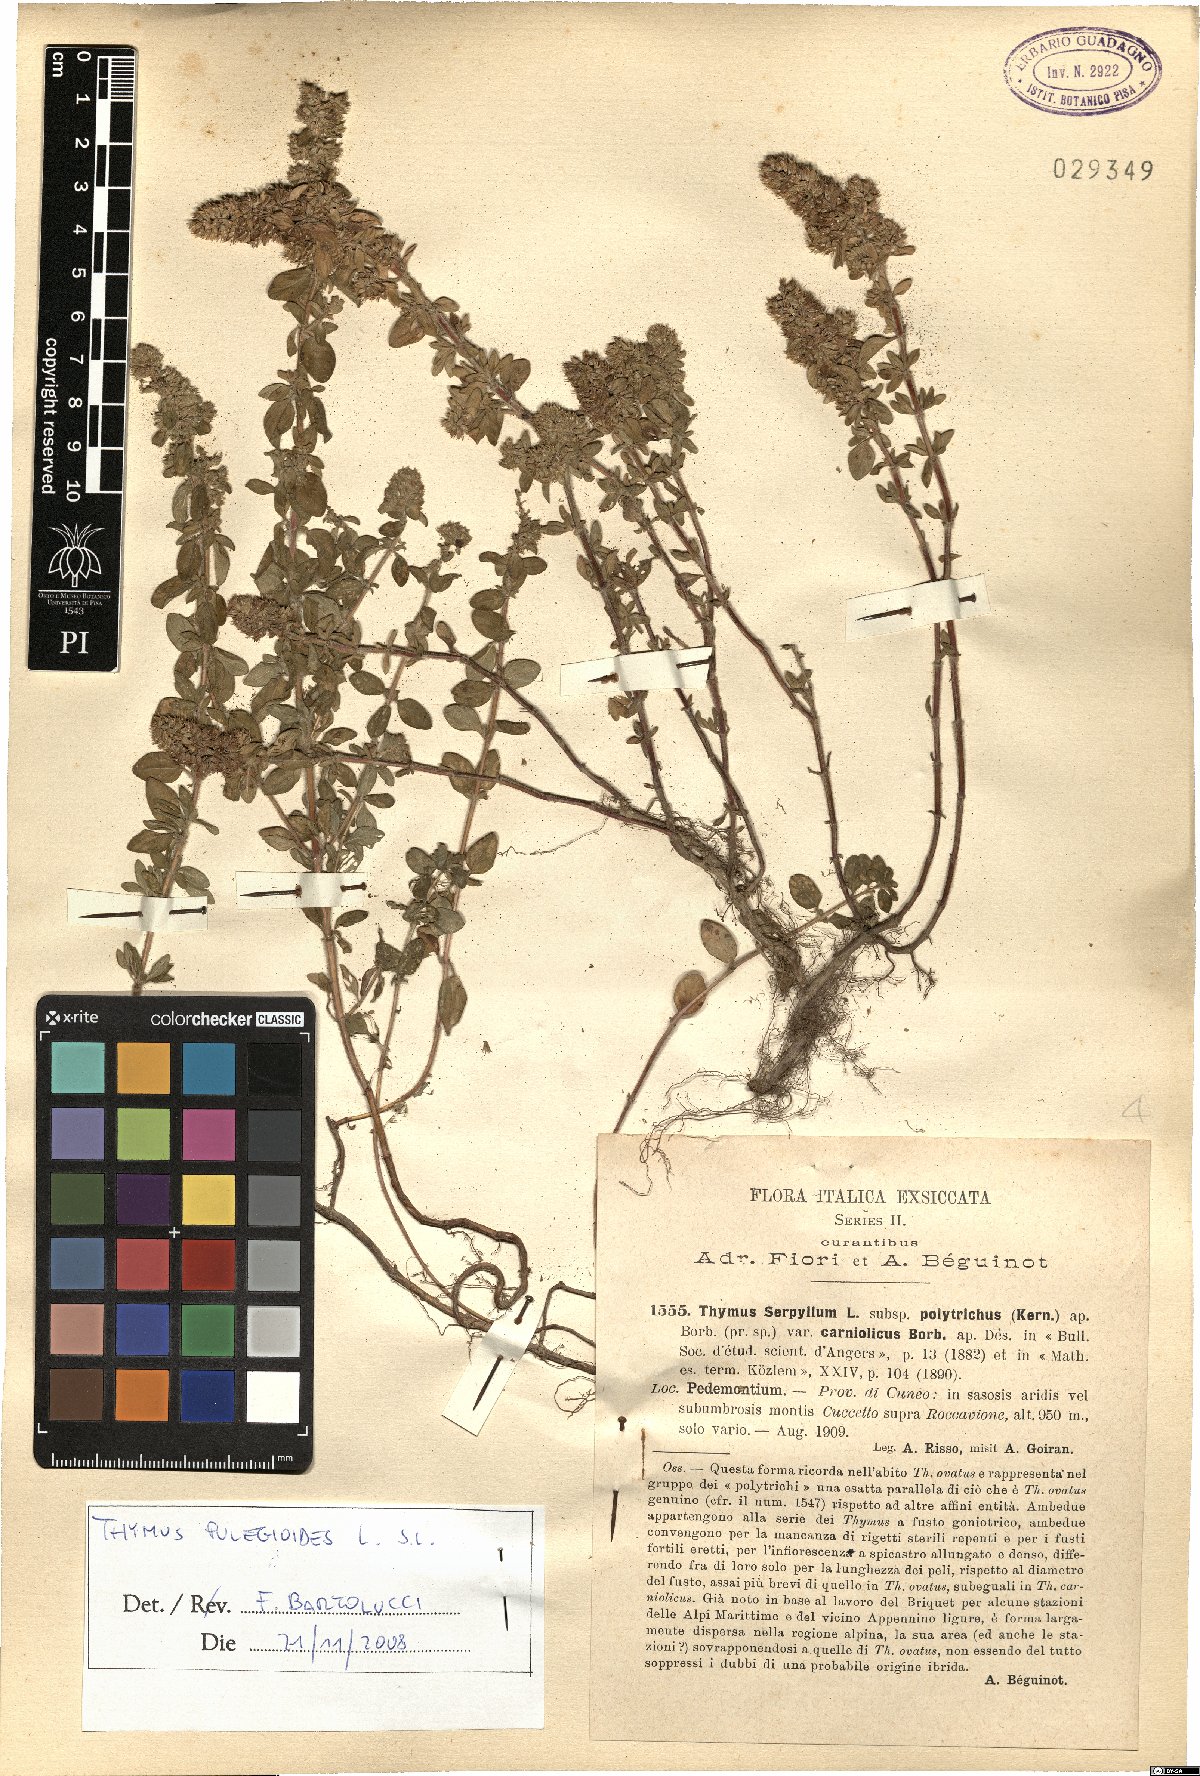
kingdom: Plantae
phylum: Tracheophyta
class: Magnoliopsida
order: Lamiales
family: Lamiaceae
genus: Thymus
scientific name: Thymus pulegioides
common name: Large thyme
